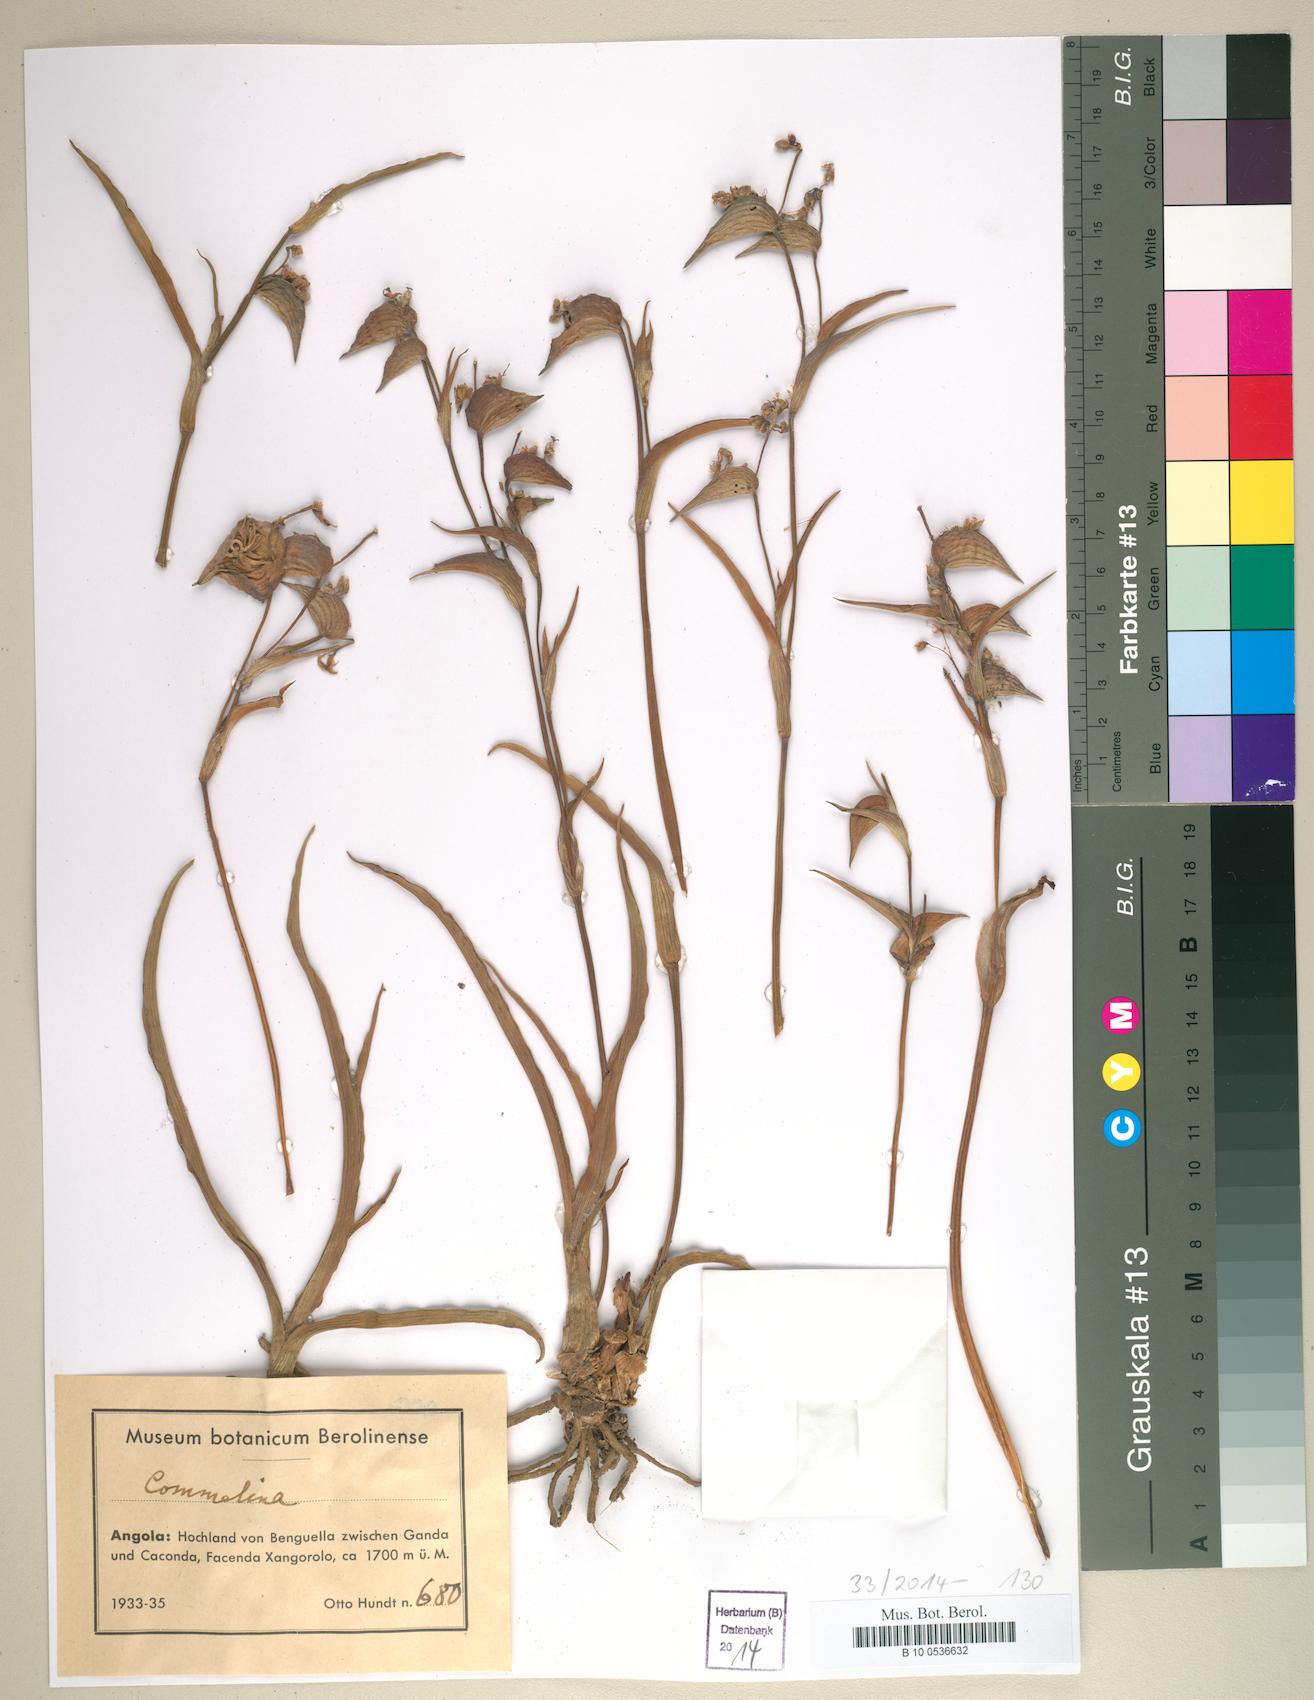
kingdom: Plantae
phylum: Tracheophyta
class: Liliopsida
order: Commelinales
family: Commelinaceae
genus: Commelina
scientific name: Commelina
